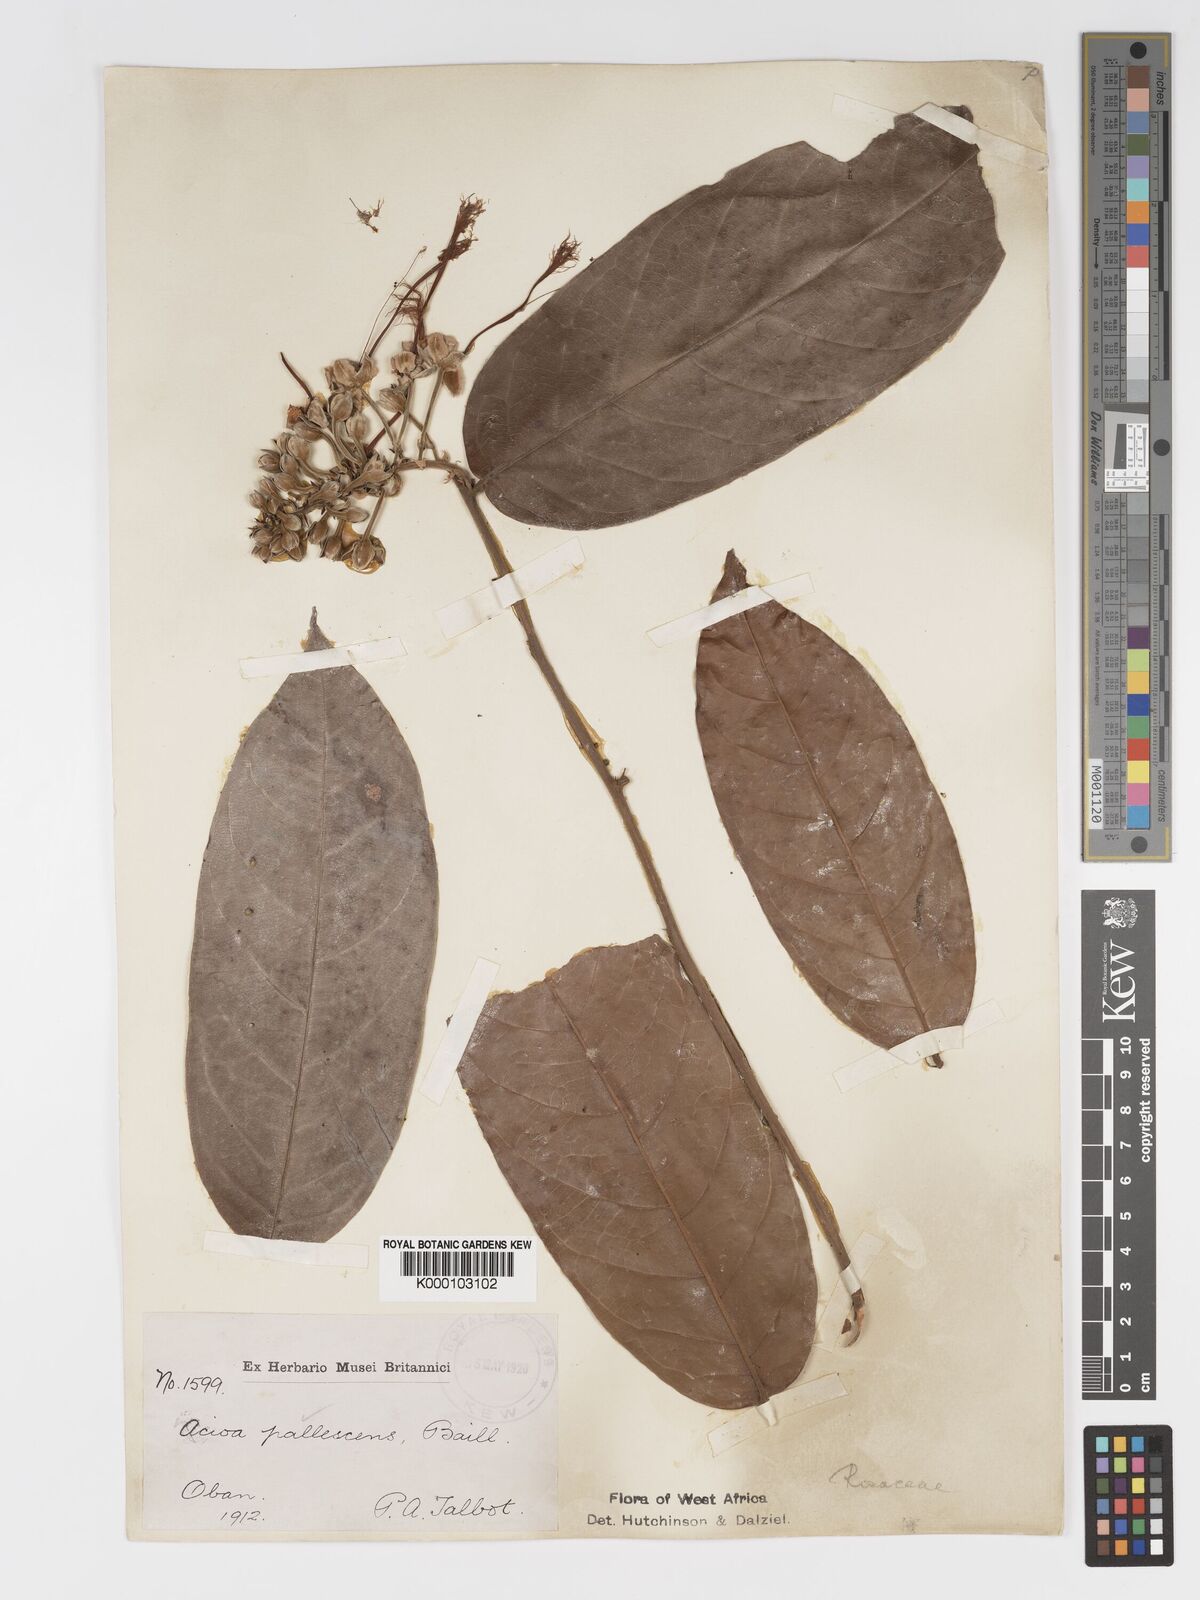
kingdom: Plantae
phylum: Tracheophyta
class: Magnoliopsida
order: Malpighiales
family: Chrysobalanaceae
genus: Dactyladenia
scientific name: Dactyladenia pallescens
